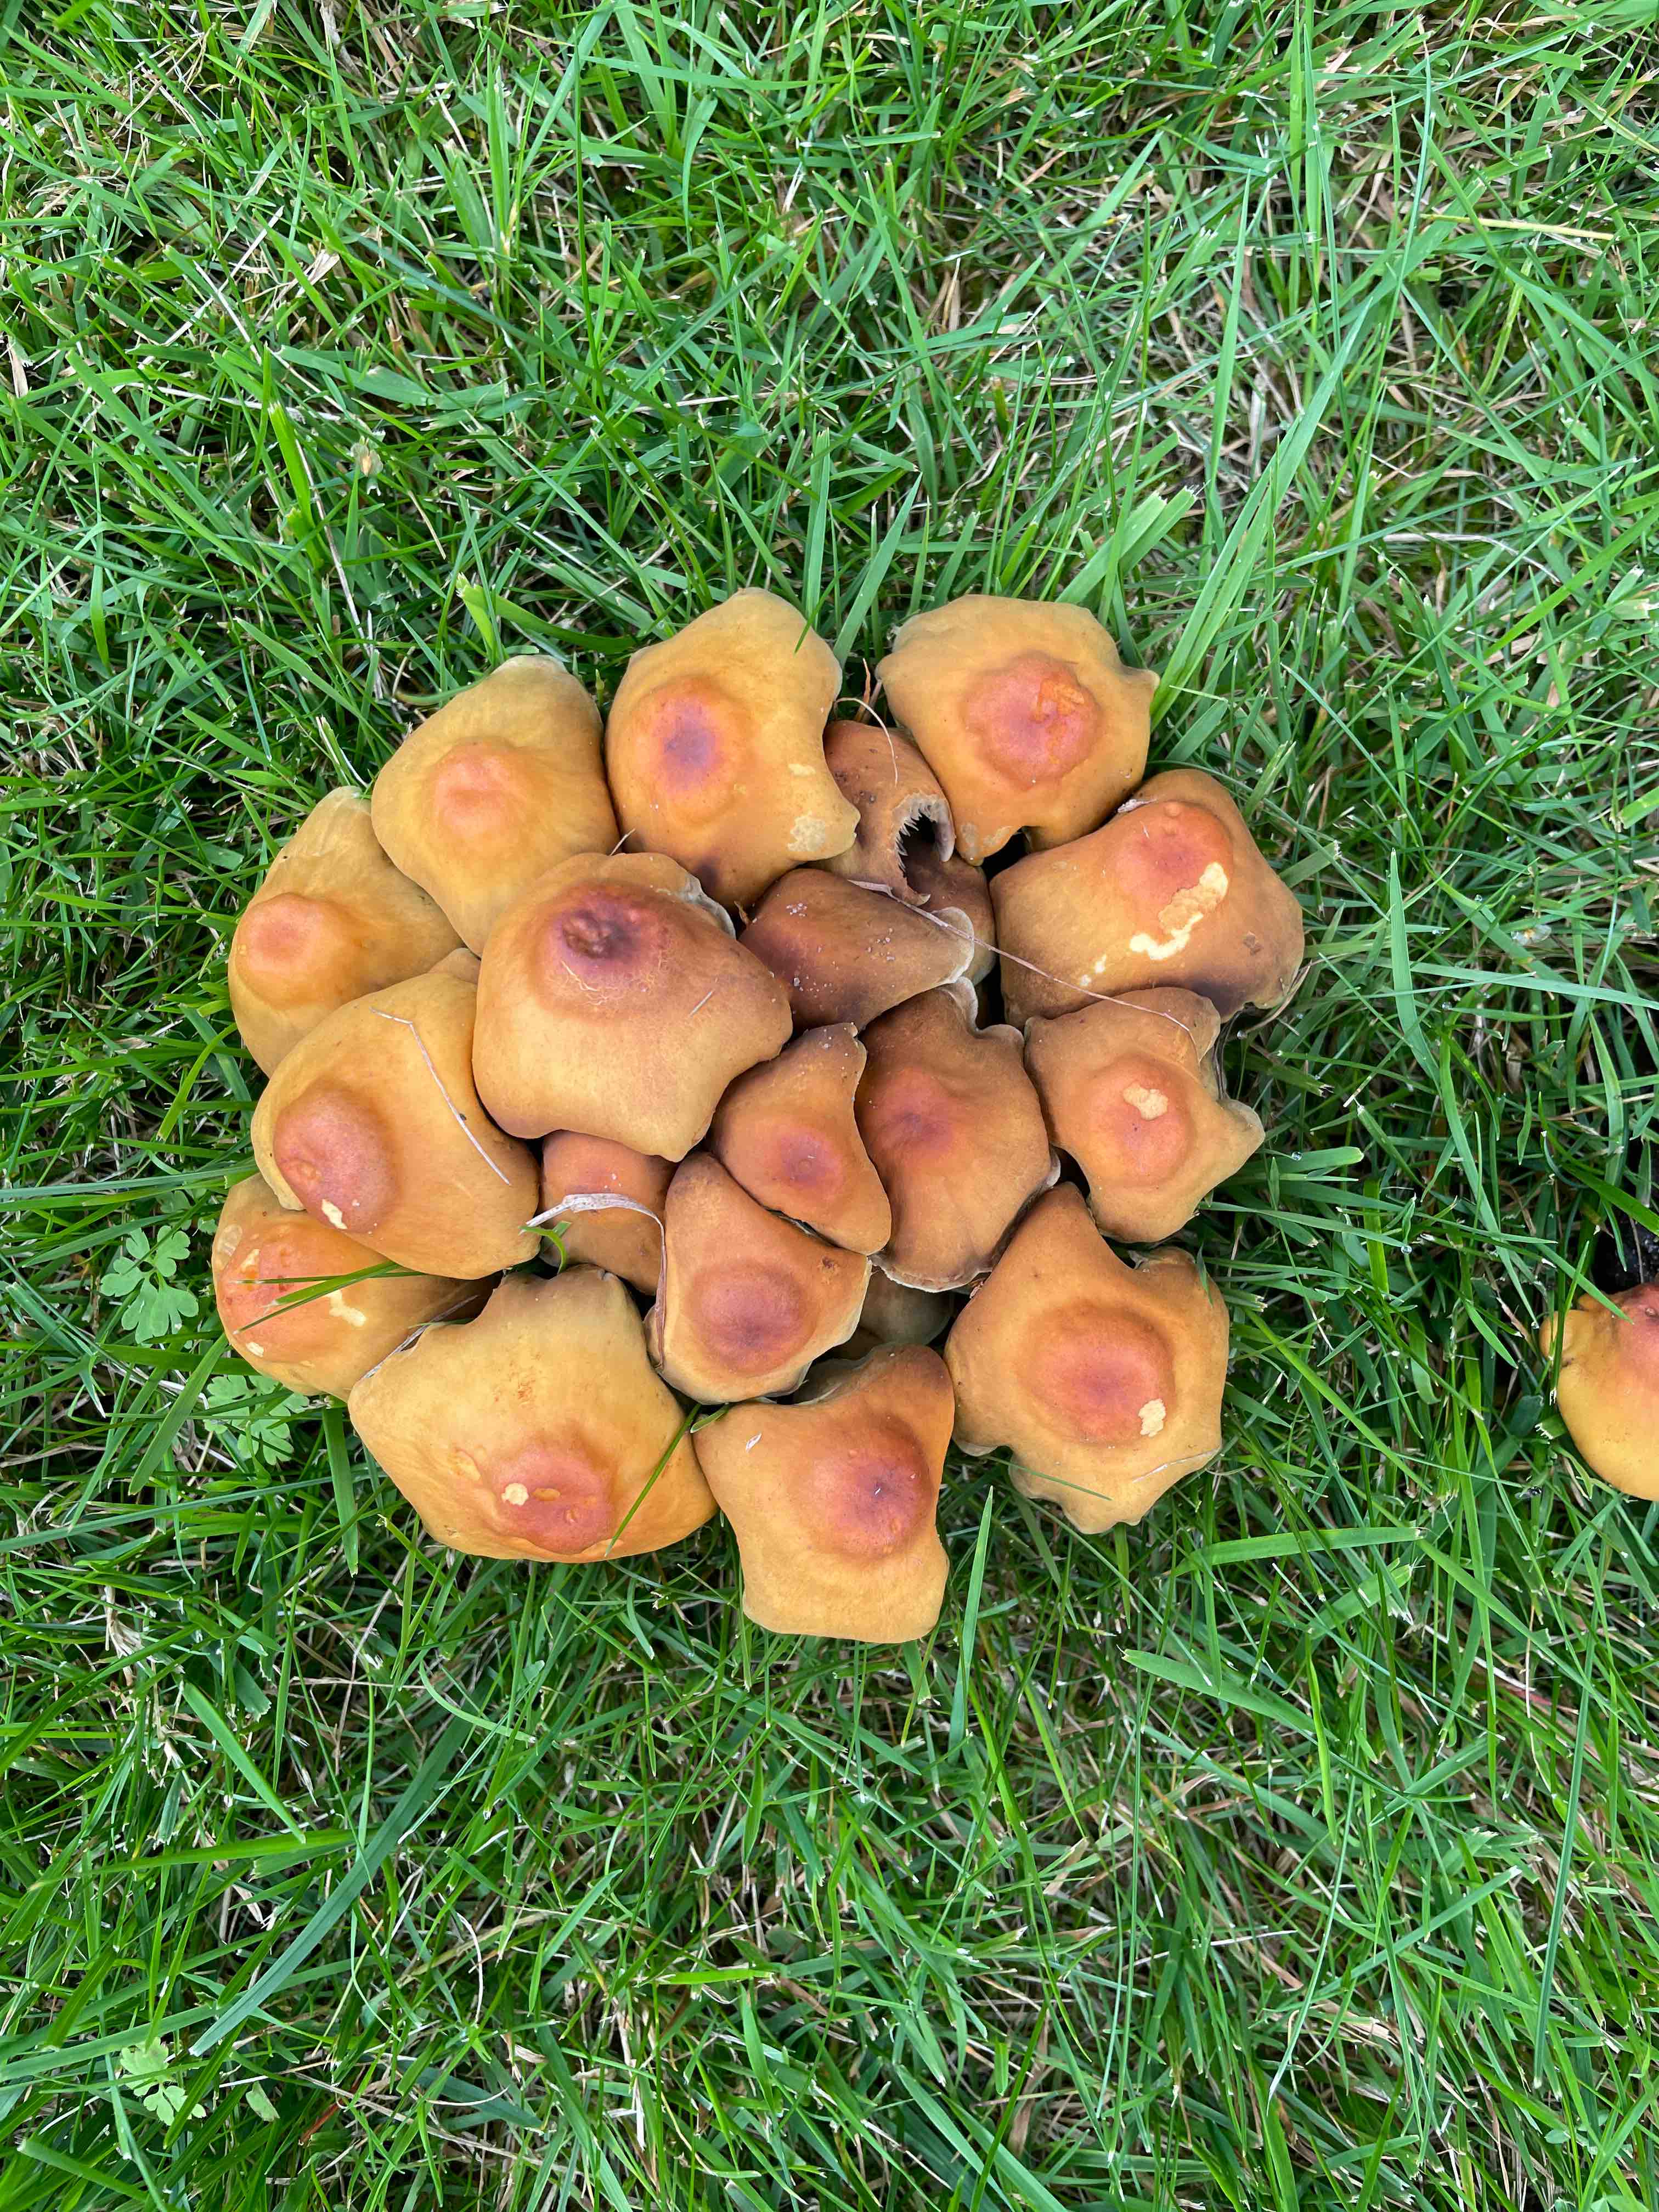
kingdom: Fungi
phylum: Basidiomycota
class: Agaricomycetes
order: Agaricales
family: Strophariaceae
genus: Hypholoma
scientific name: Hypholoma fasciculare
